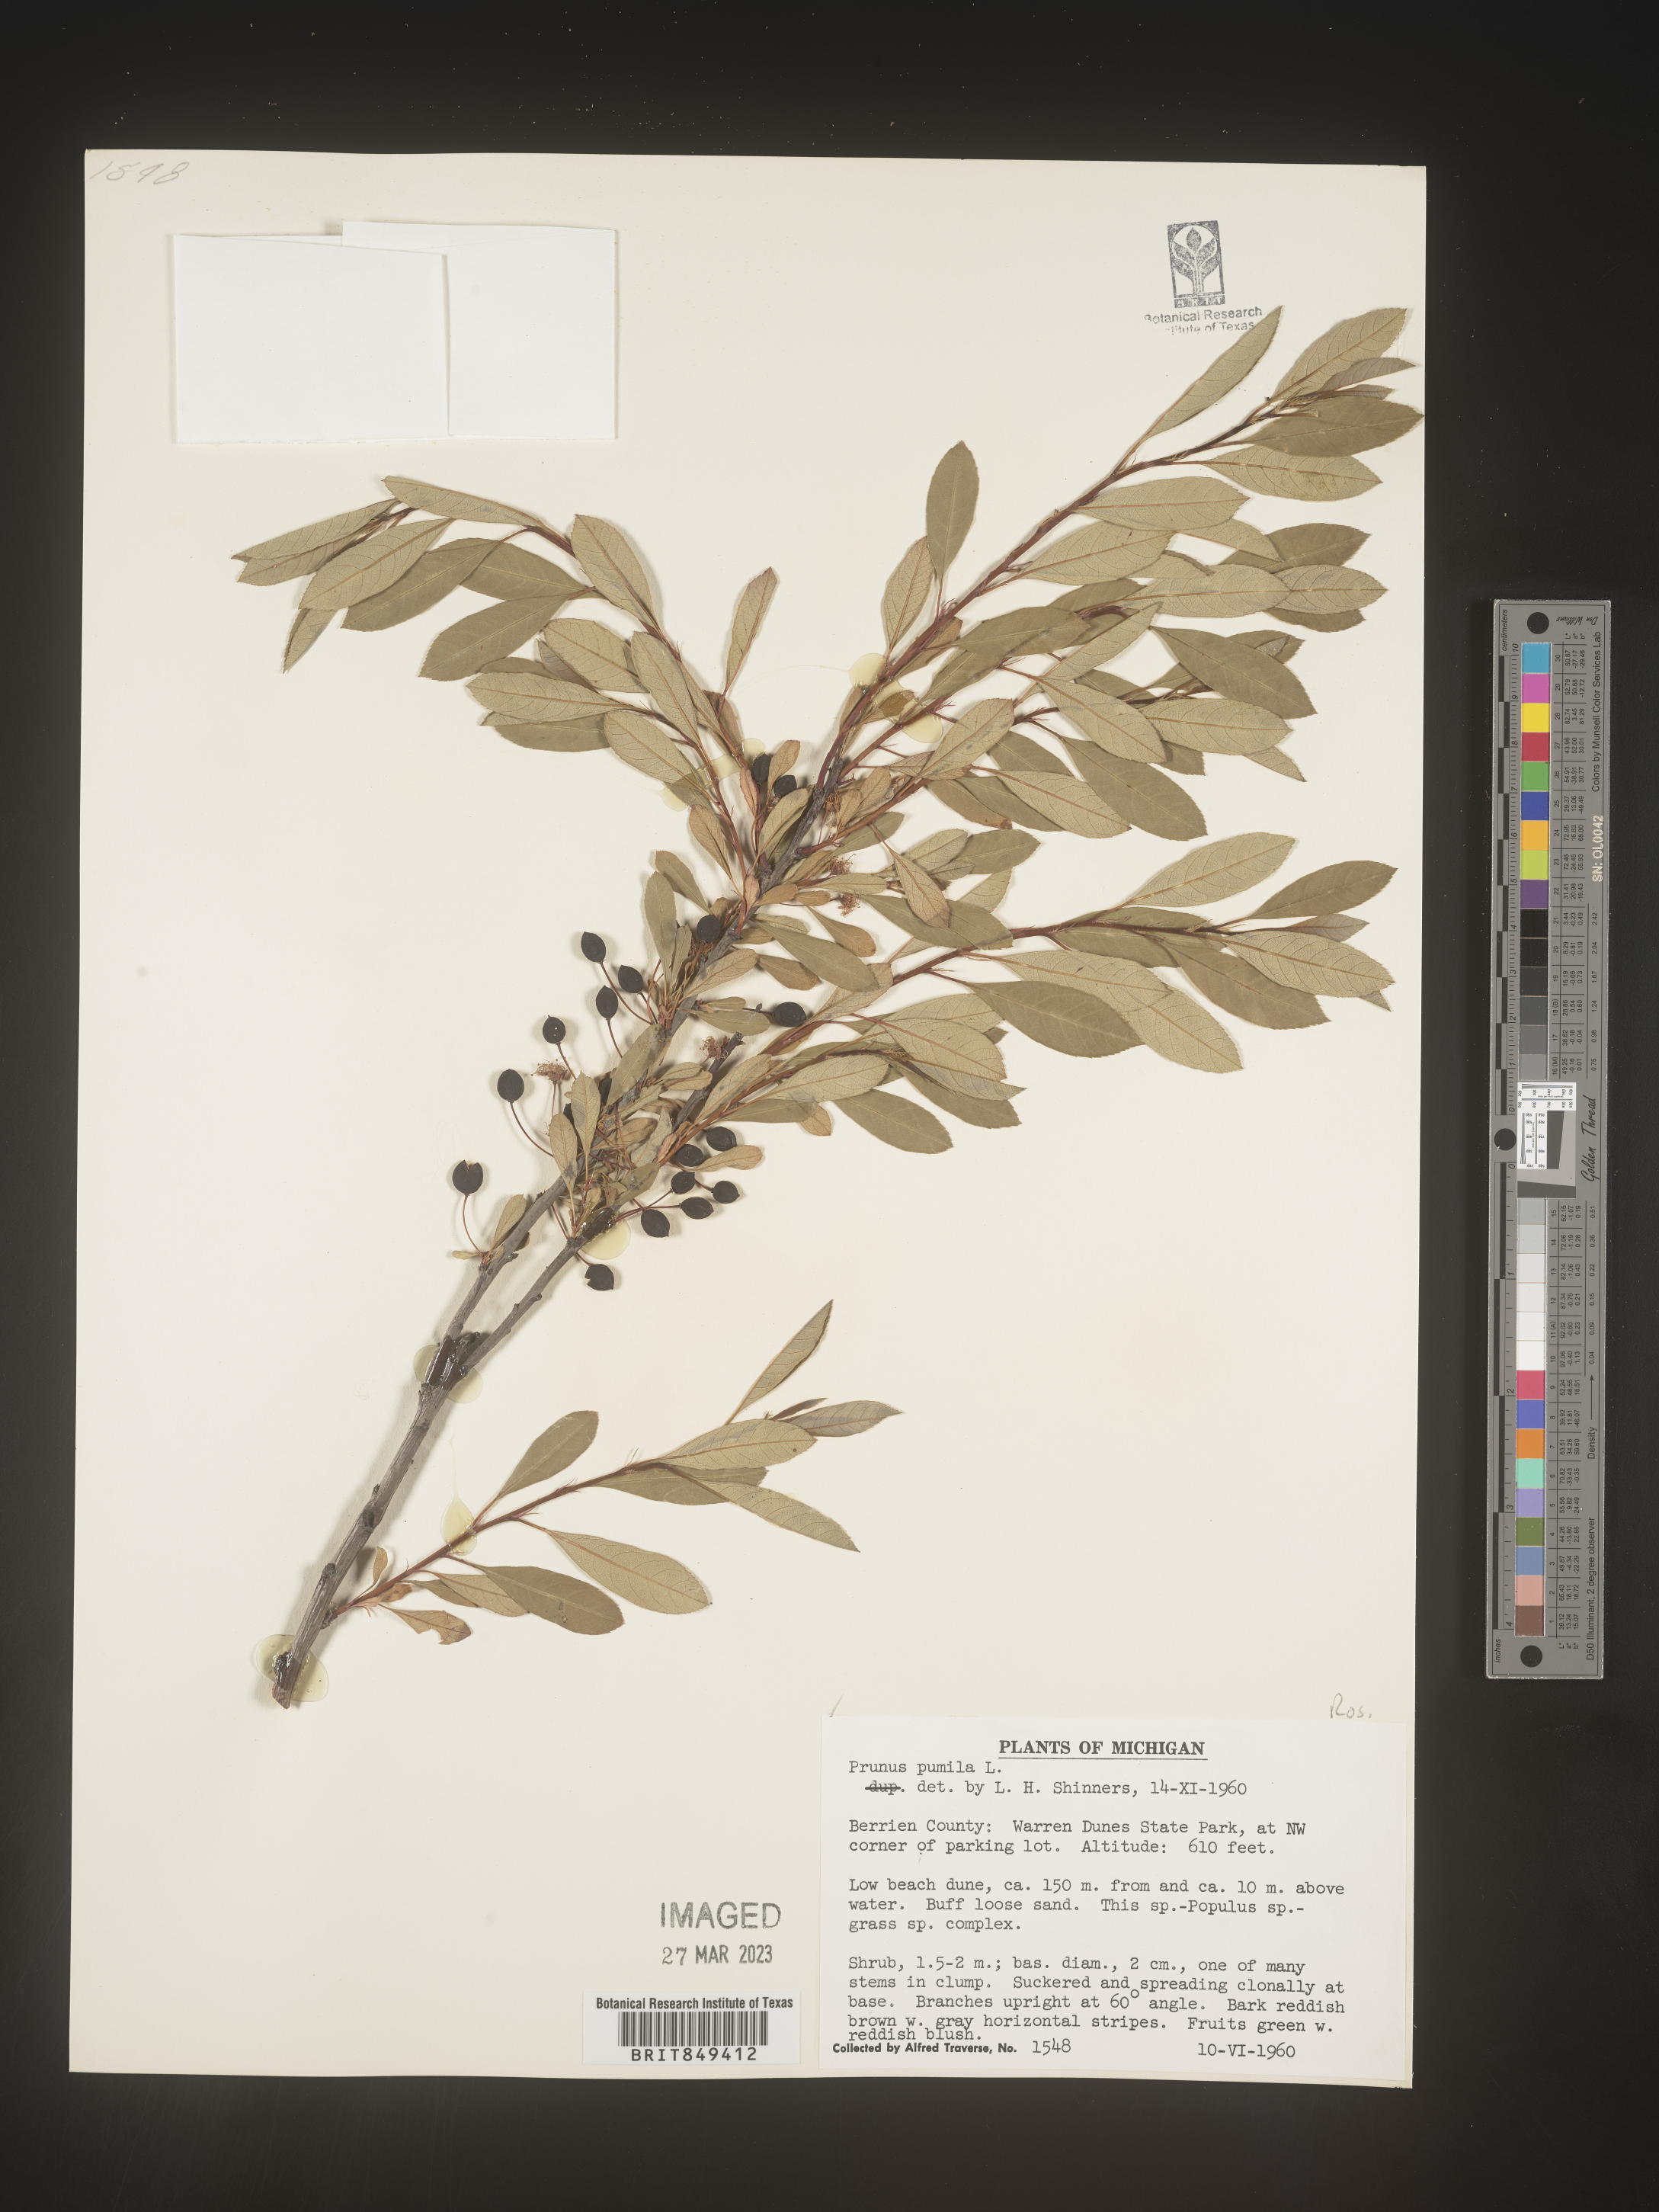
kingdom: Plantae
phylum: Tracheophyta
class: Magnoliopsida
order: Rosales
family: Rosaceae
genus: Prunus
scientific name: Prunus pumila
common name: Dwarf cherry
